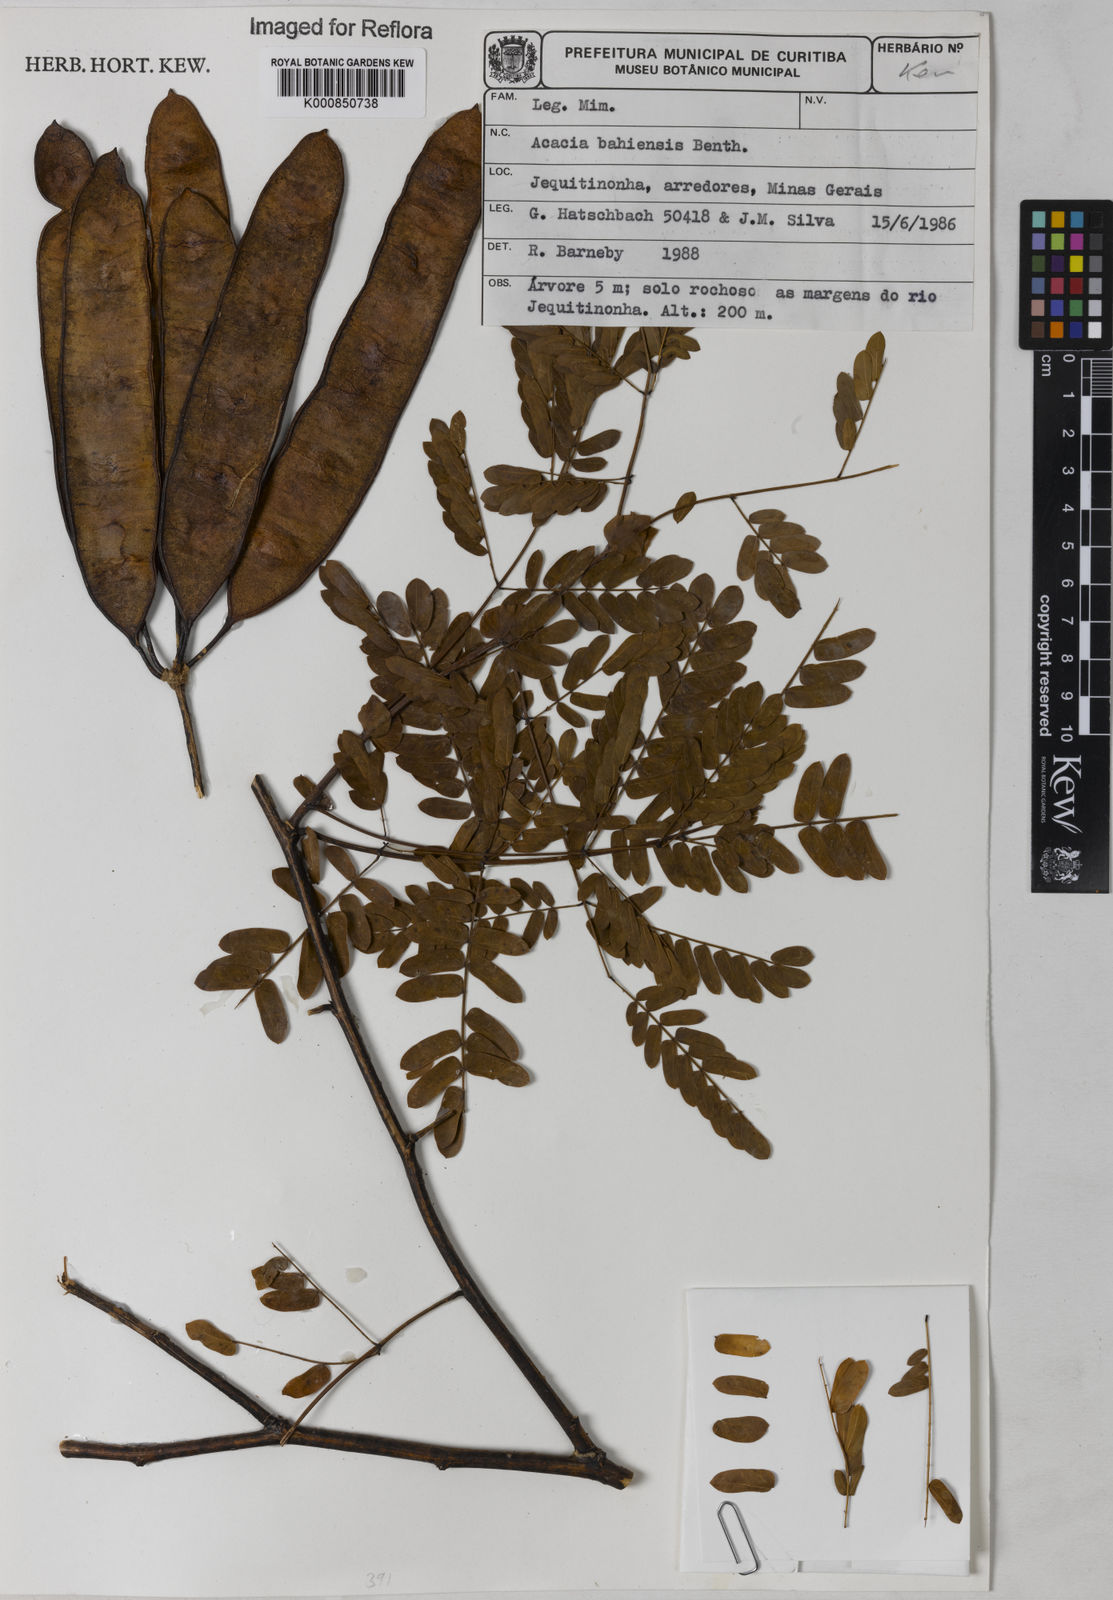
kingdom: Plantae
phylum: Tracheophyta
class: Magnoliopsida
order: Fabales
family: Fabaceae
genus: Senegalia
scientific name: Senegalia bahiensis
